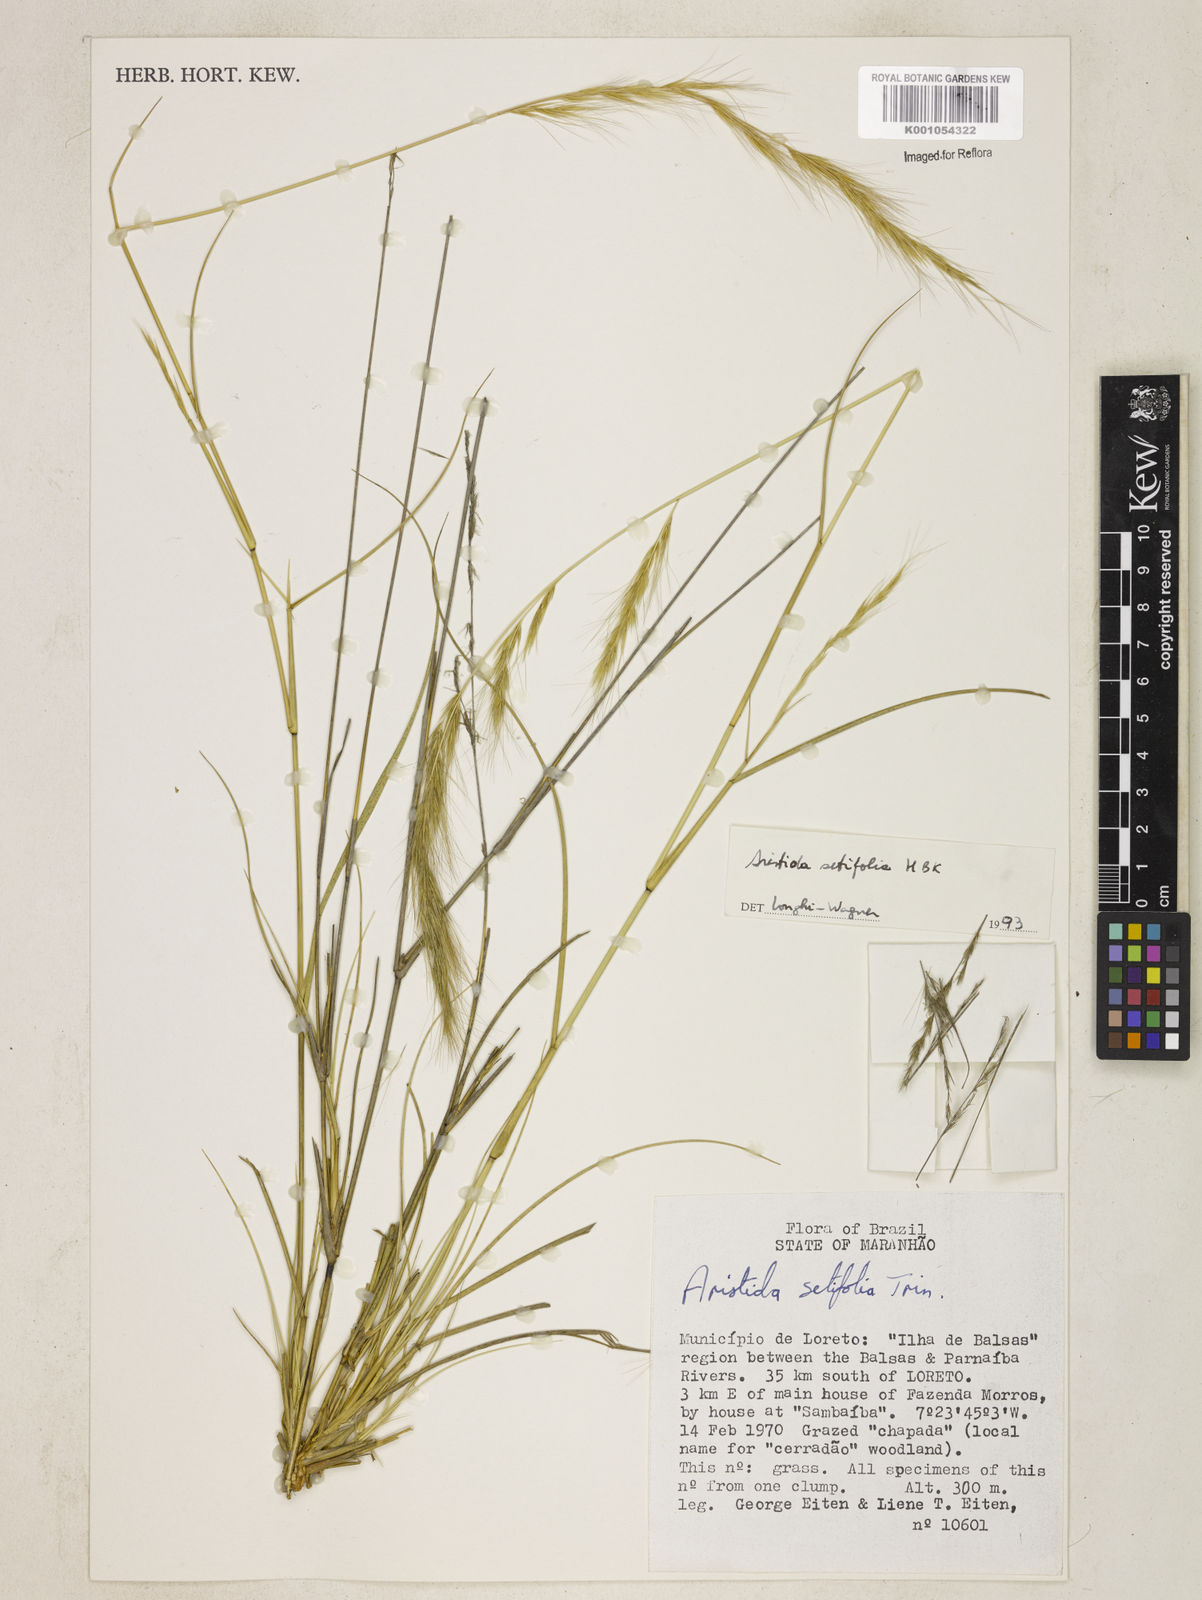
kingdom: Plantae
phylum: Tracheophyta
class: Liliopsida
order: Poales
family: Poaceae
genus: Aristida
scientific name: Aristida setifolia
